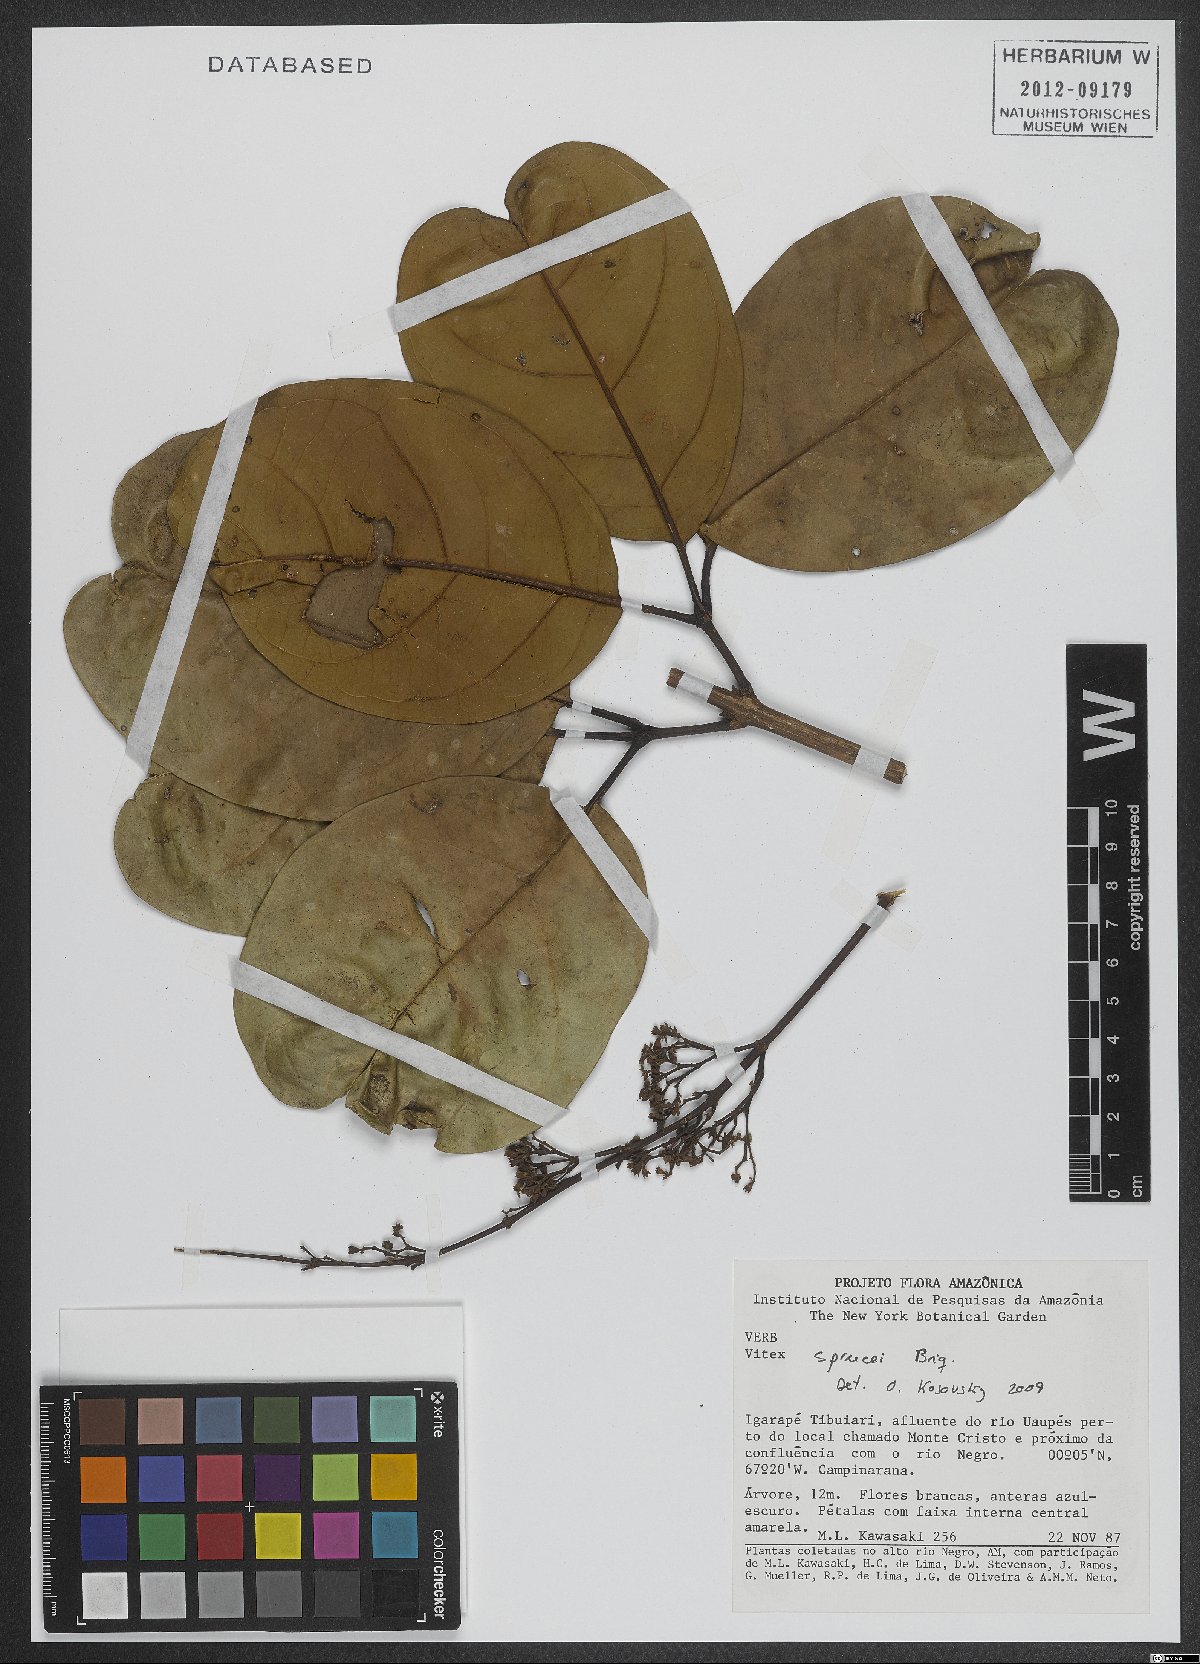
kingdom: Plantae
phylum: Tracheophyta
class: Magnoliopsida
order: Lamiales
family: Lamiaceae
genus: Vitex
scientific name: Vitex sprucei
